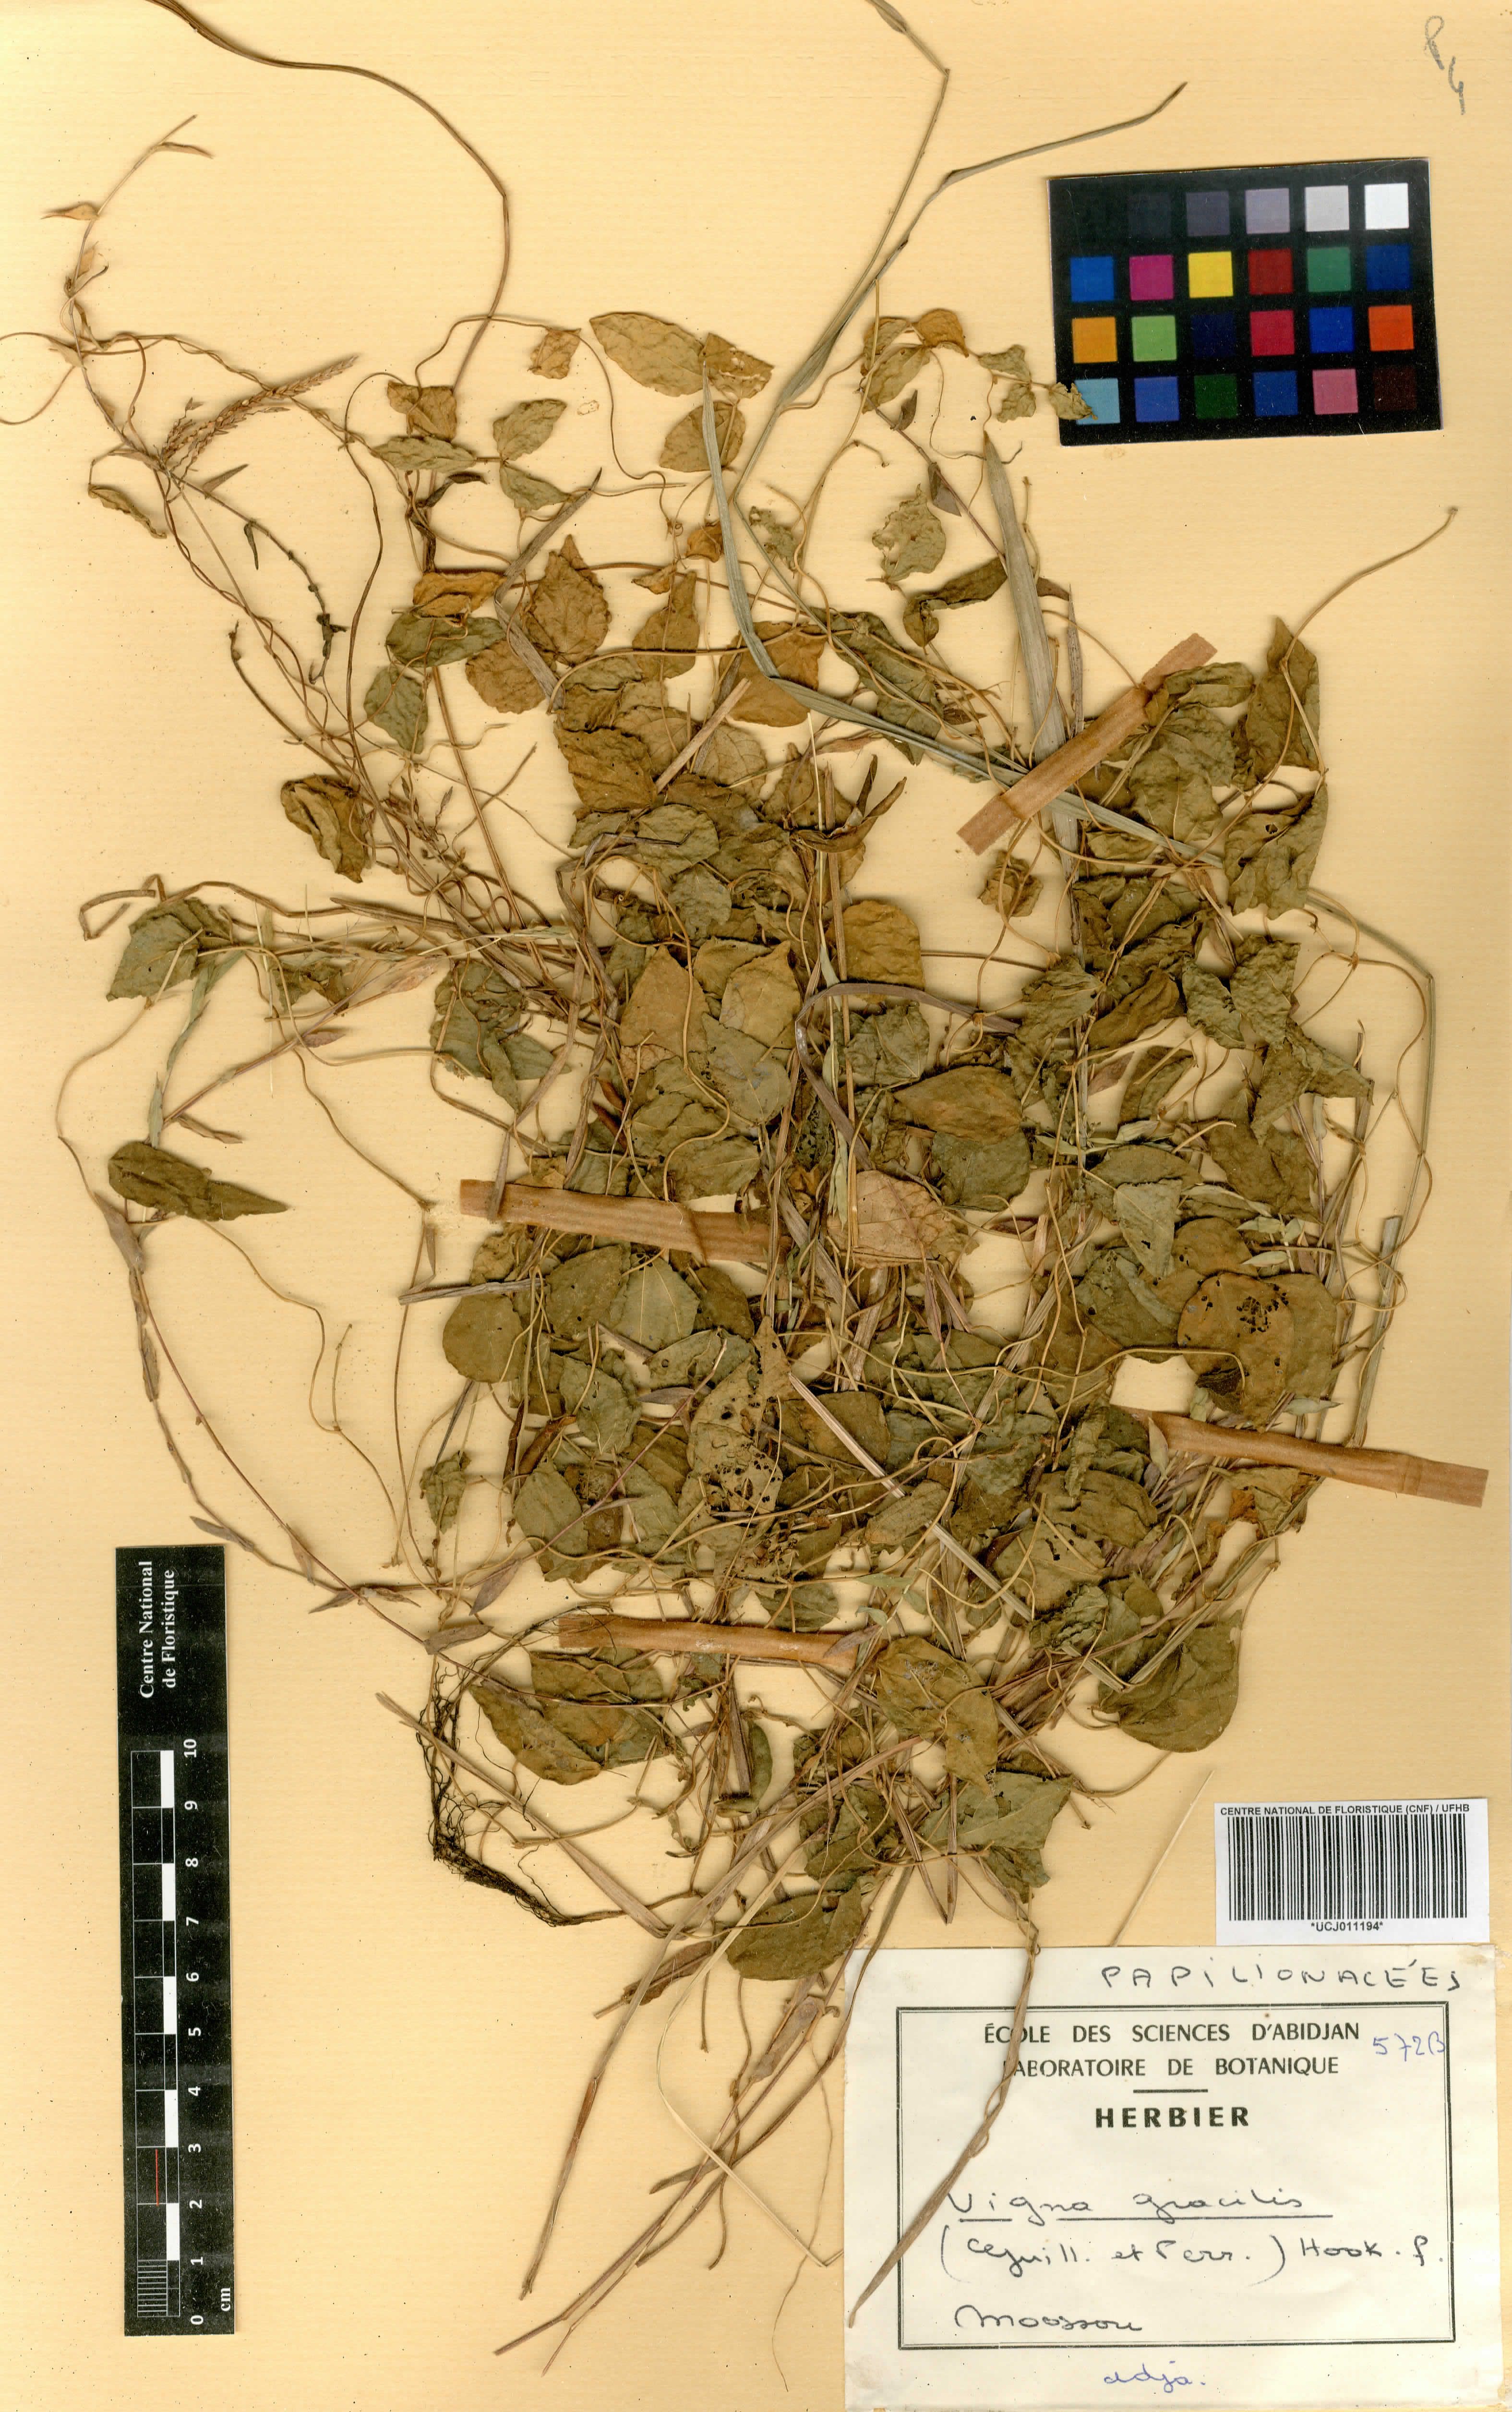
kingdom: Plantae
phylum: Tracheophyta
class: Magnoliopsida
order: Fabales
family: Fabaceae
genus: Vigna
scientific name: Vigna gracilis
